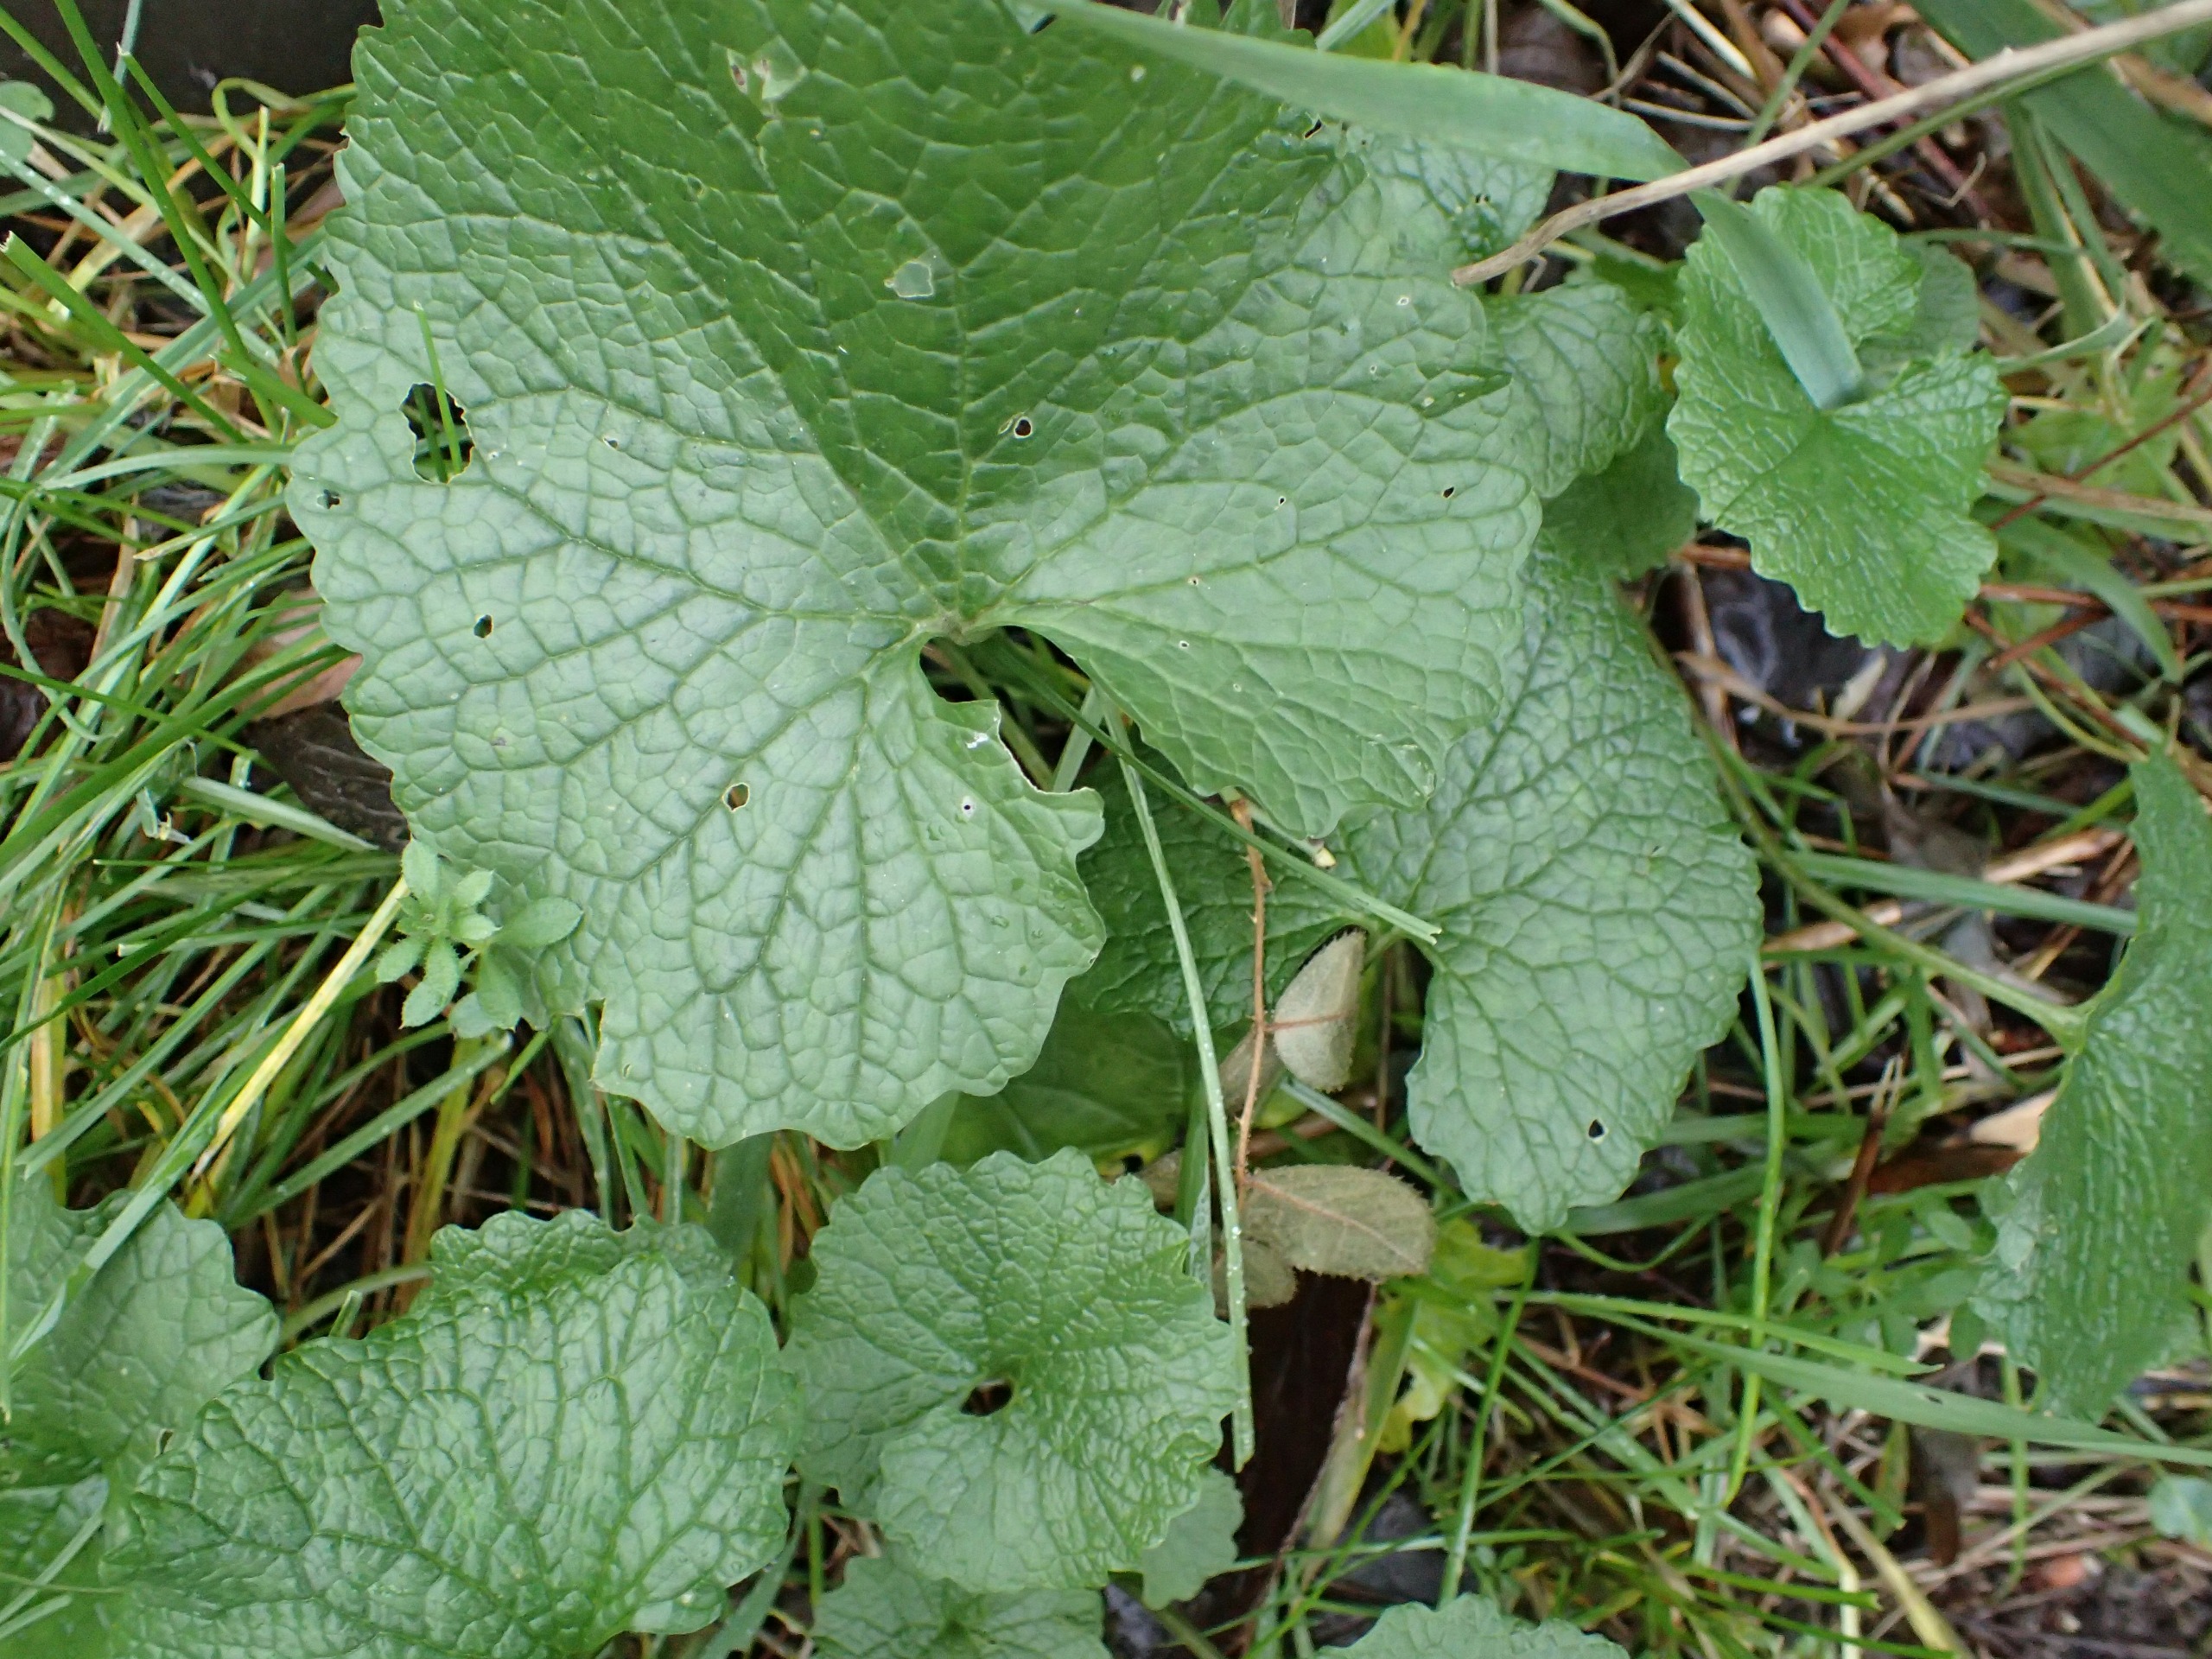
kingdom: Plantae
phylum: Tracheophyta
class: Magnoliopsida
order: Brassicales
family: Brassicaceae
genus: Alliaria
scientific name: Alliaria petiolata
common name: Løgkarse
